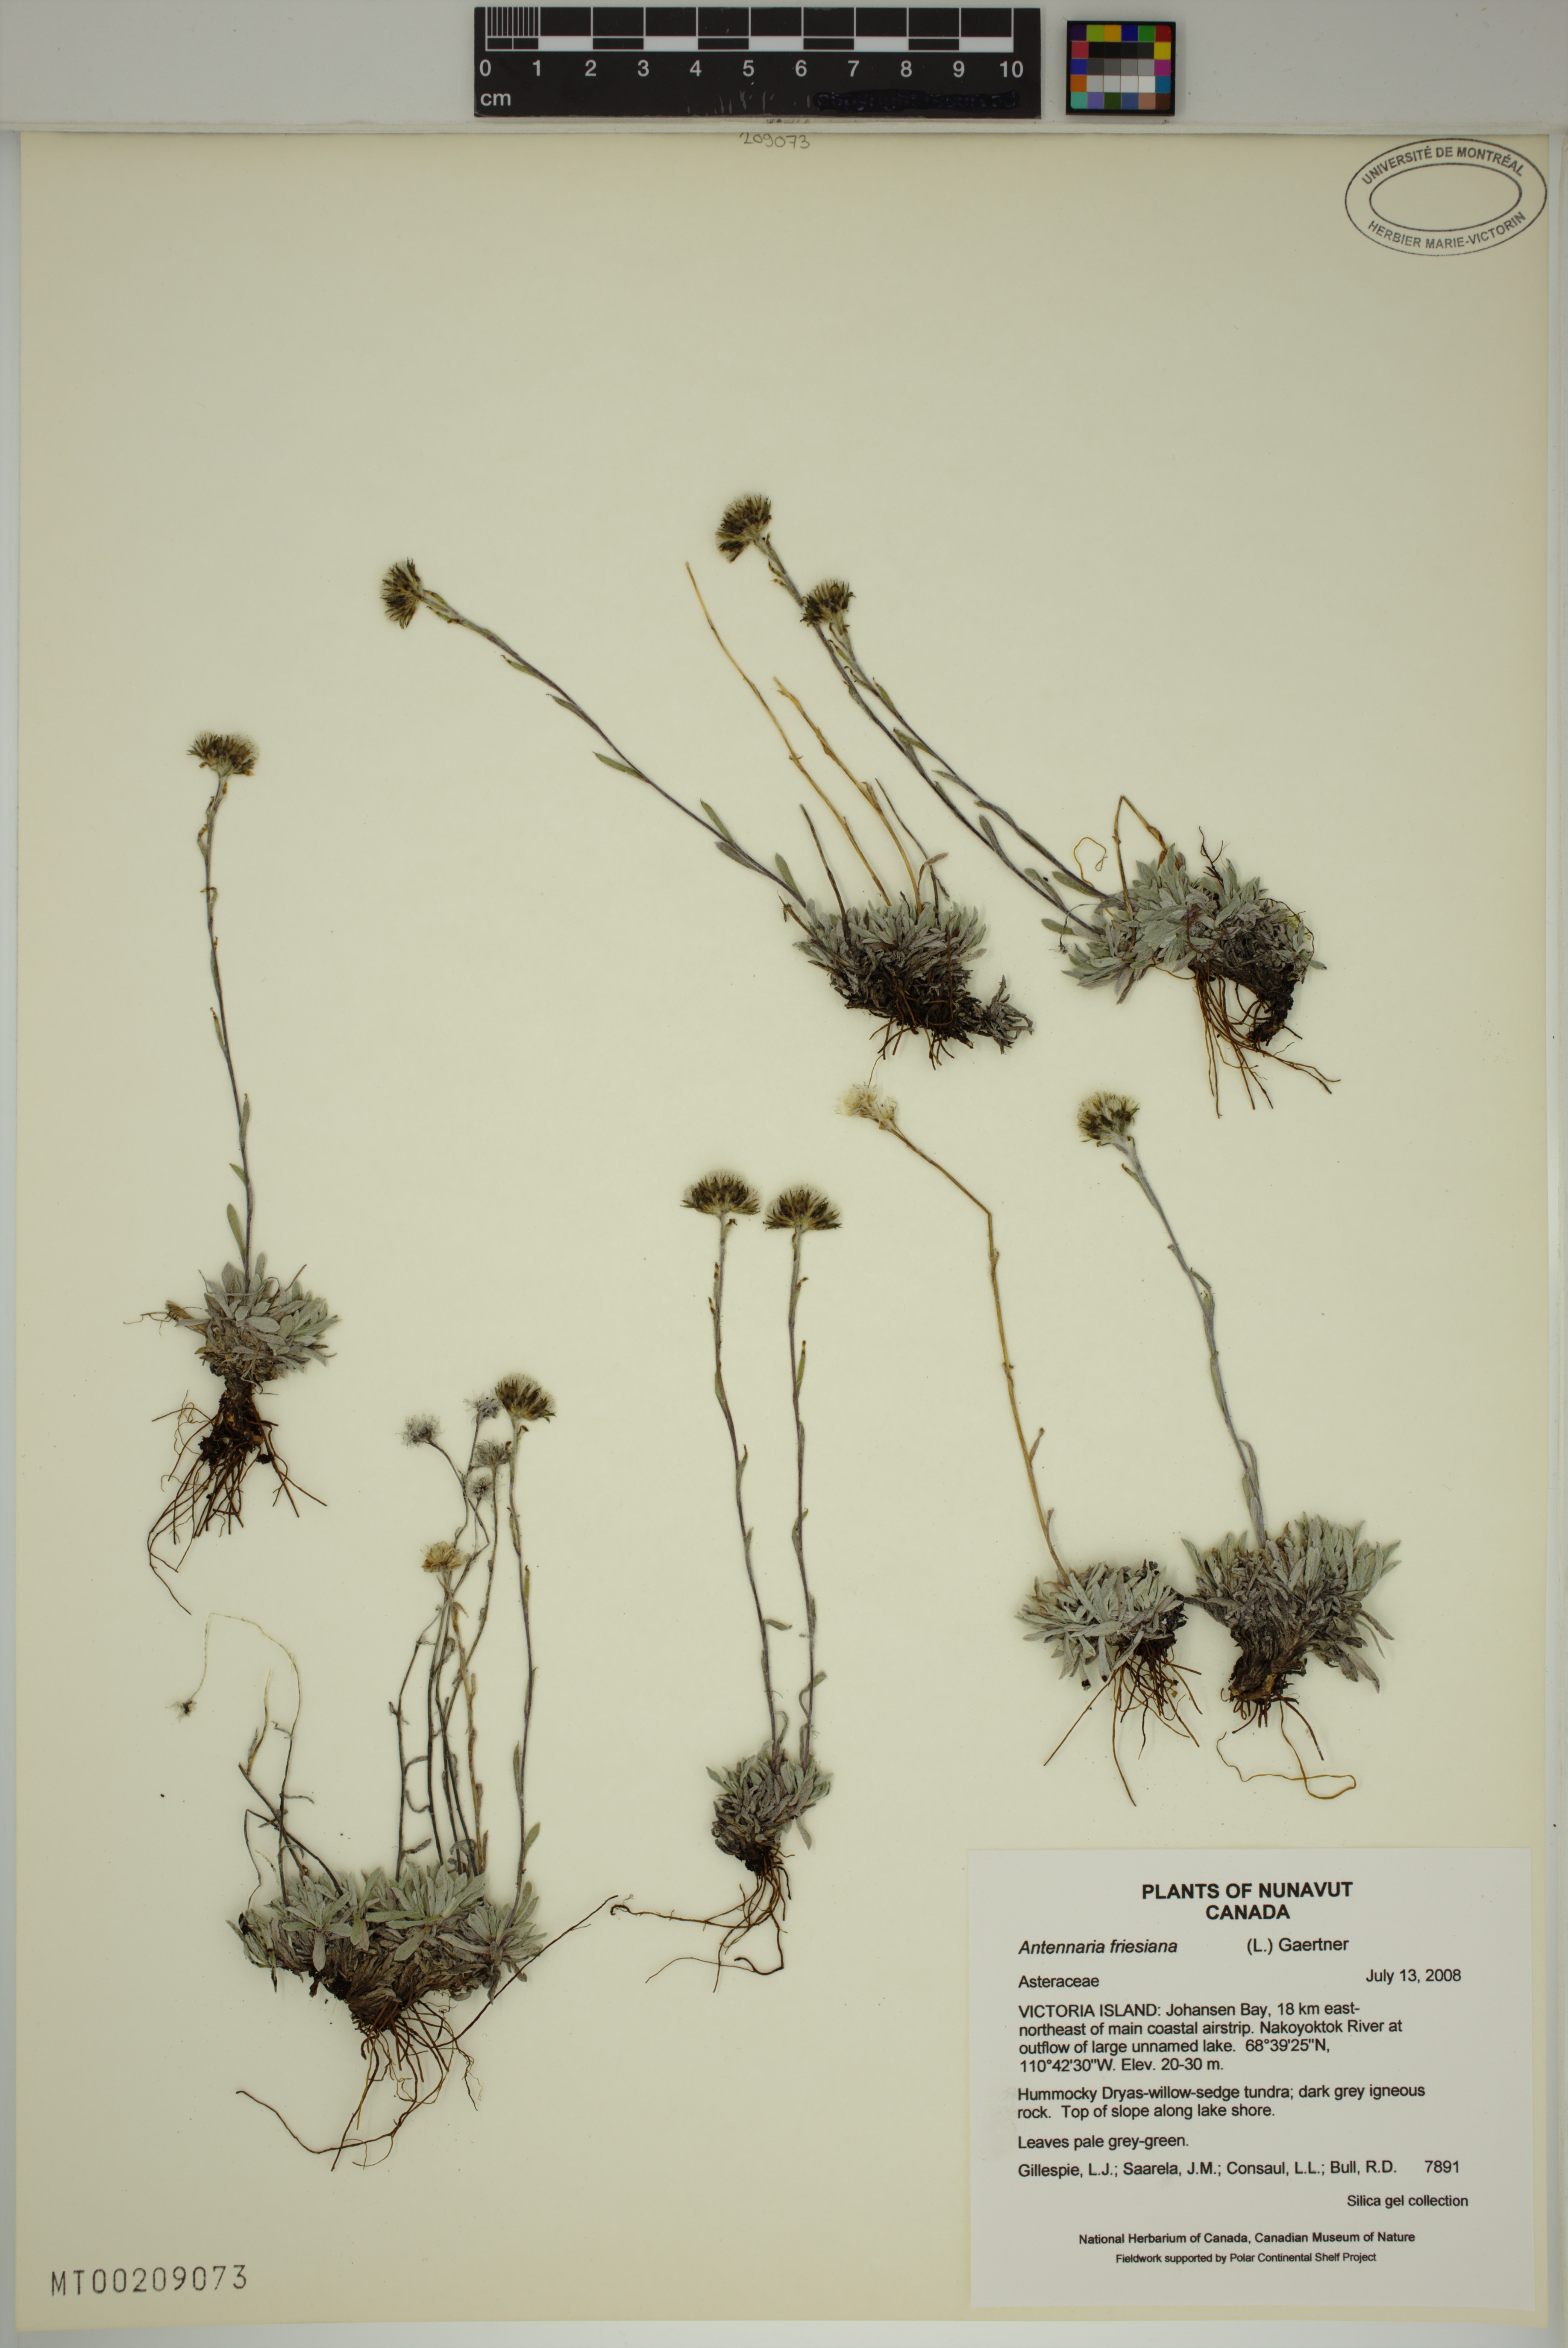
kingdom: Plantae
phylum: Tracheophyta
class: Magnoliopsida
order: Asterales
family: Asteraceae
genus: Antennaria
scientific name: Antennaria friesiana
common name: Fries' pussytoes
